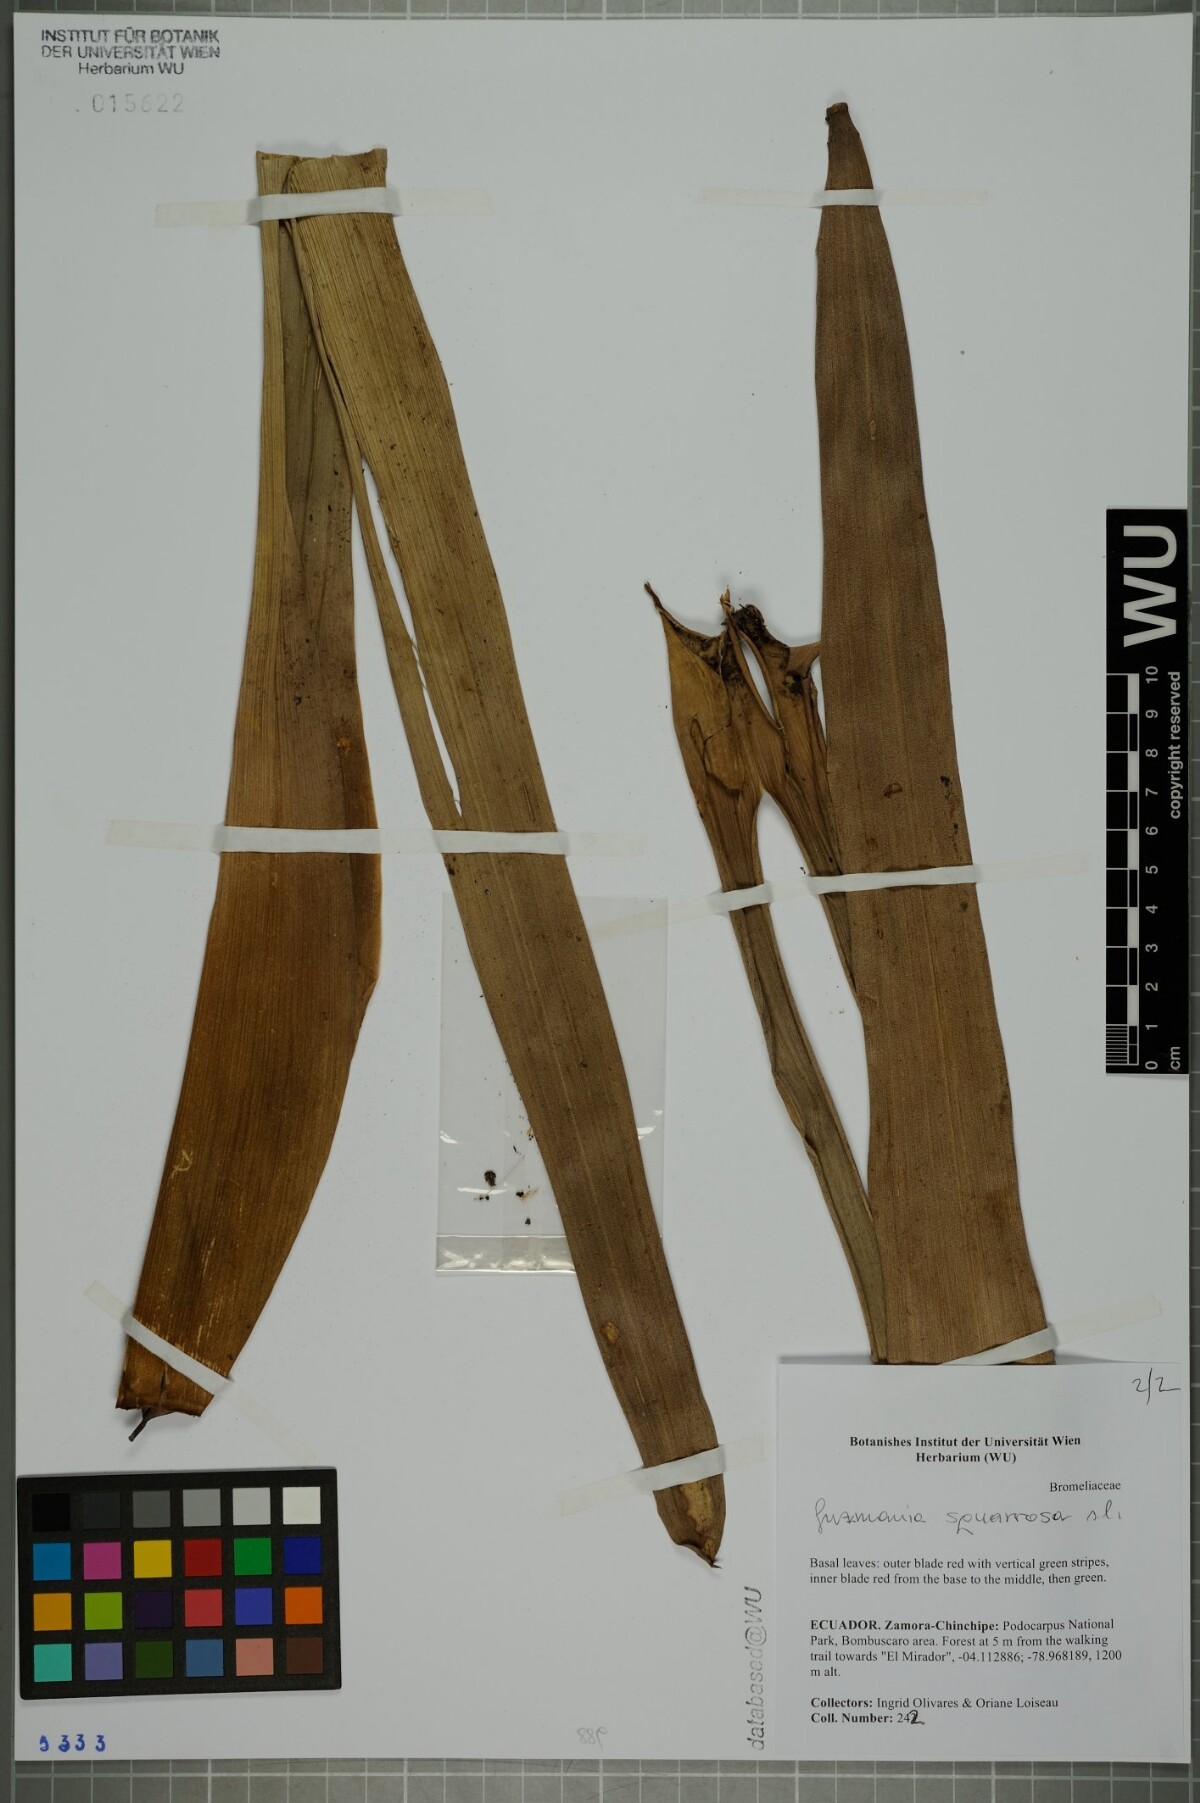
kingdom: Plantae
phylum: Tracheophyta
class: Liliopsida
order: Poales
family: Bromeliaceae
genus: Guzmania
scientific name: Guzmania squarrosa
